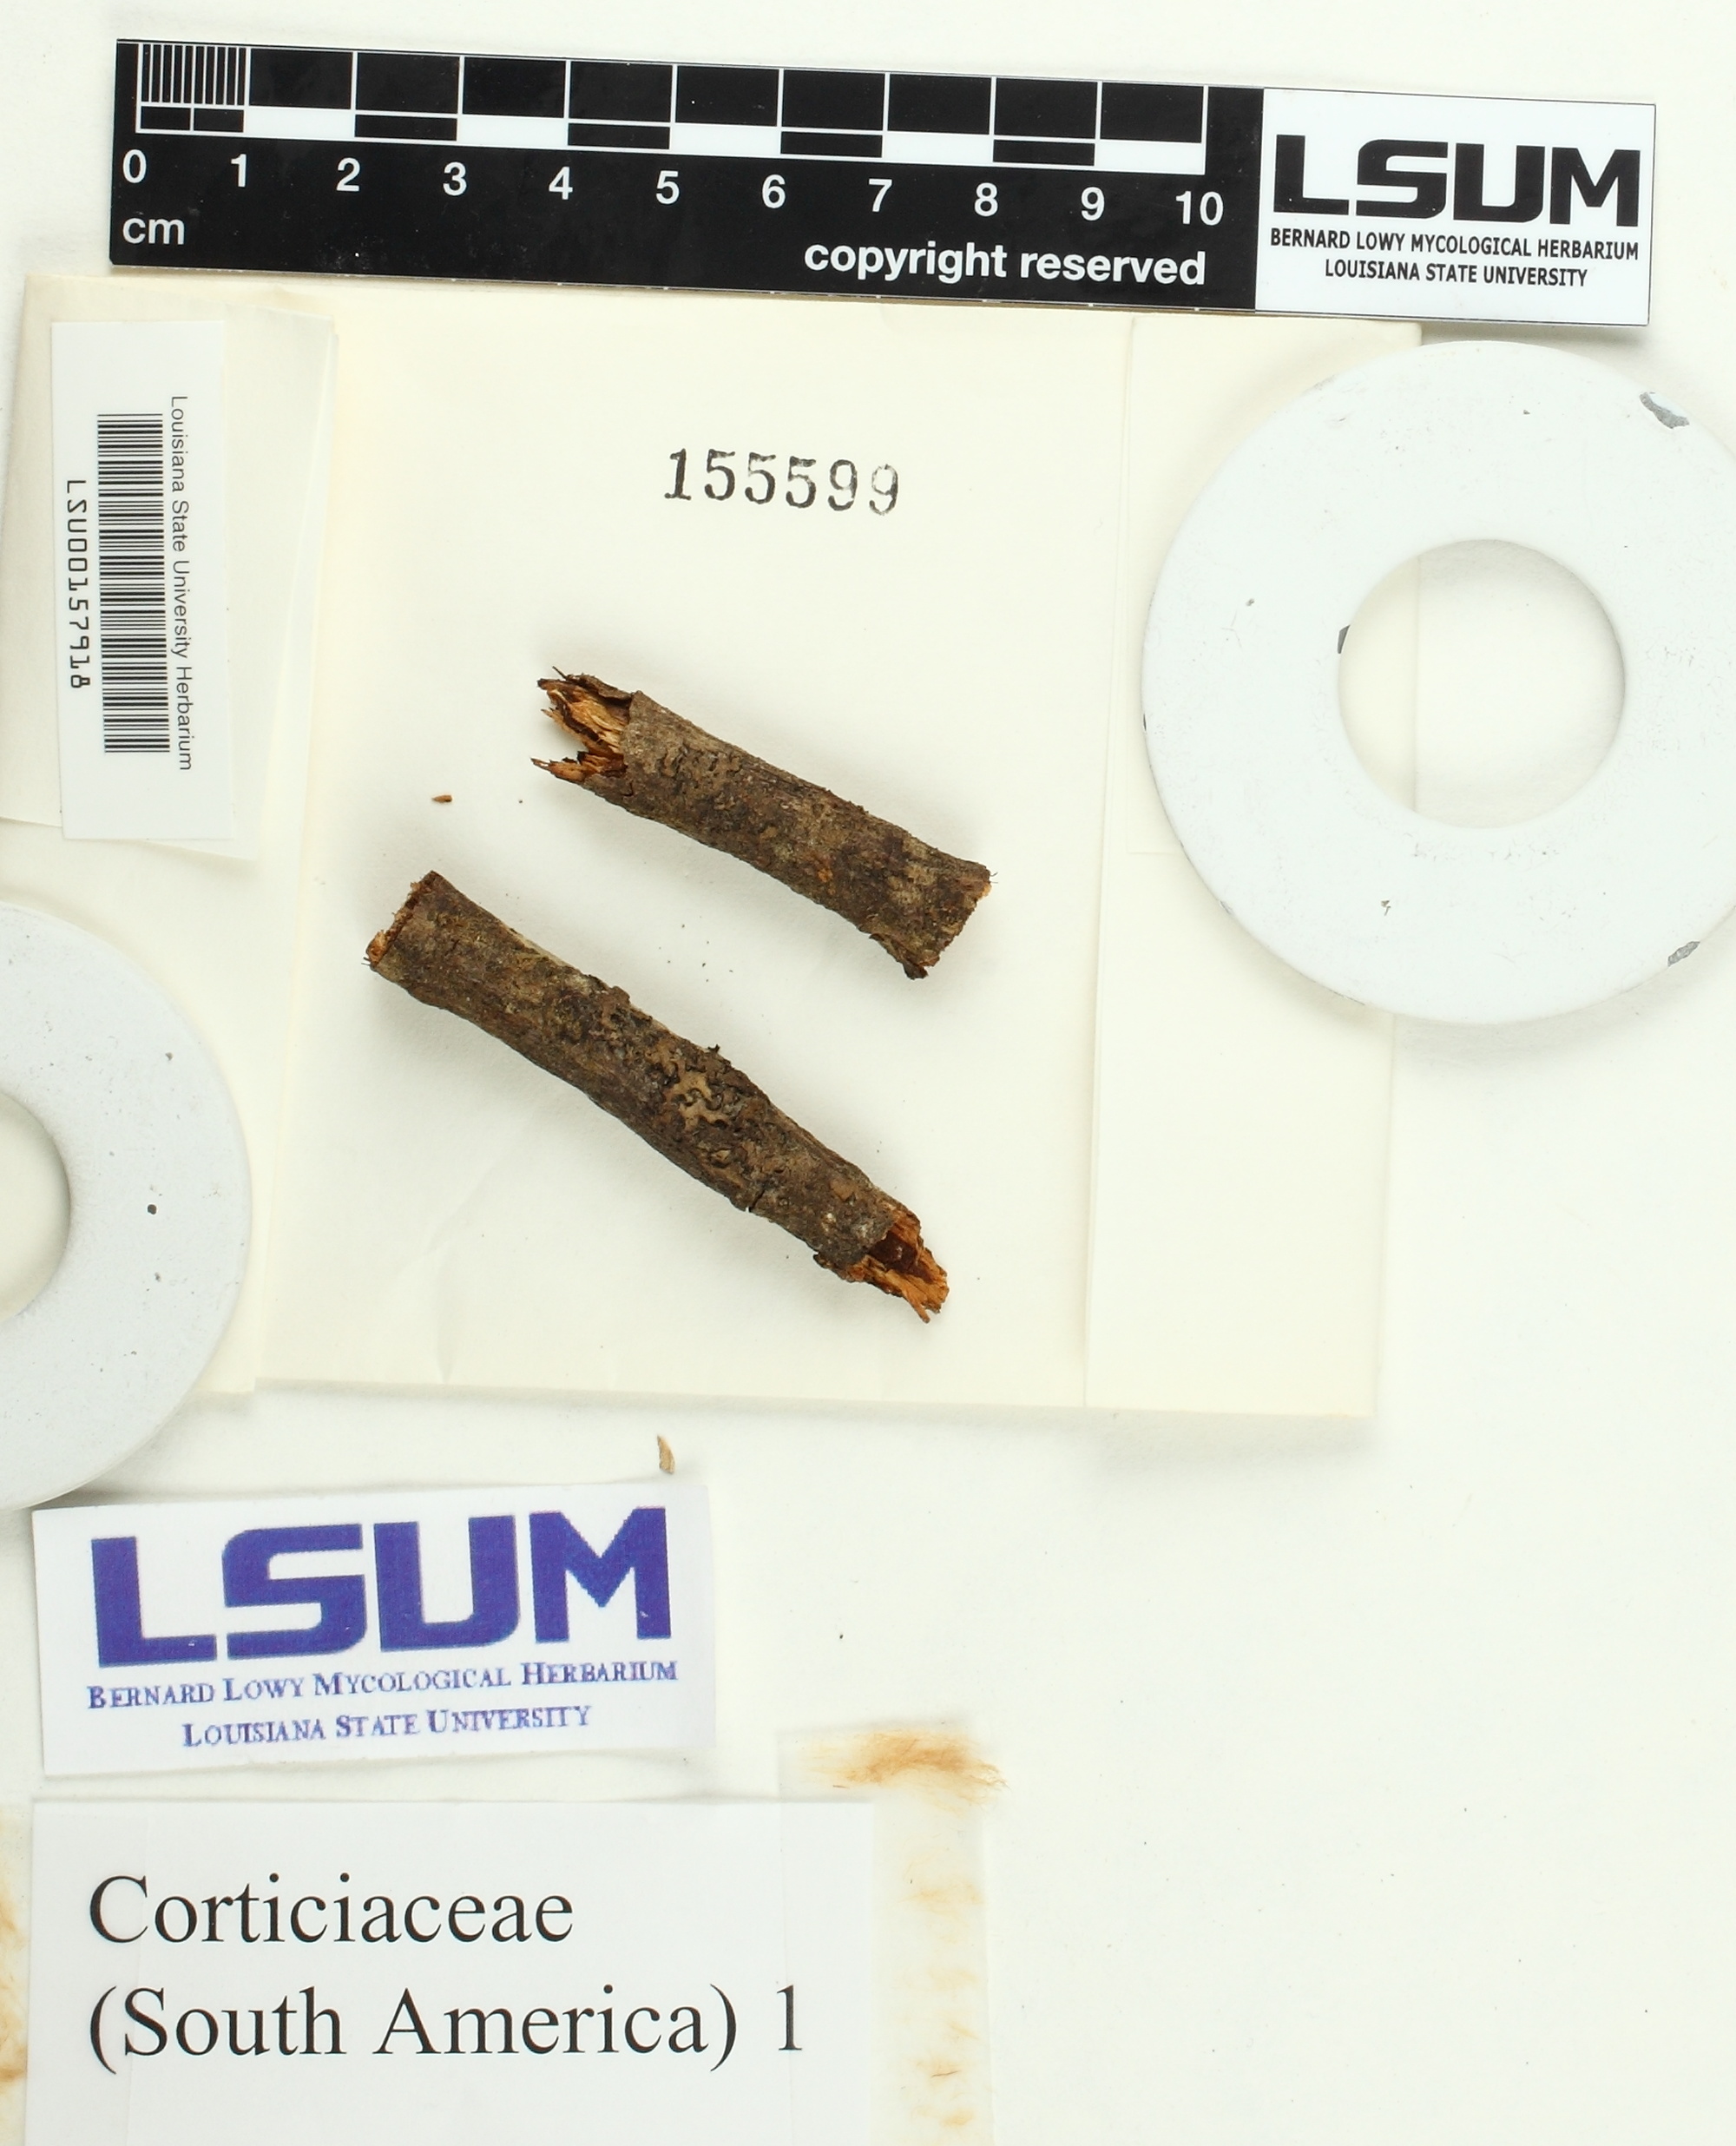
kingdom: Fungi
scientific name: Fungi
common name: Fungi
